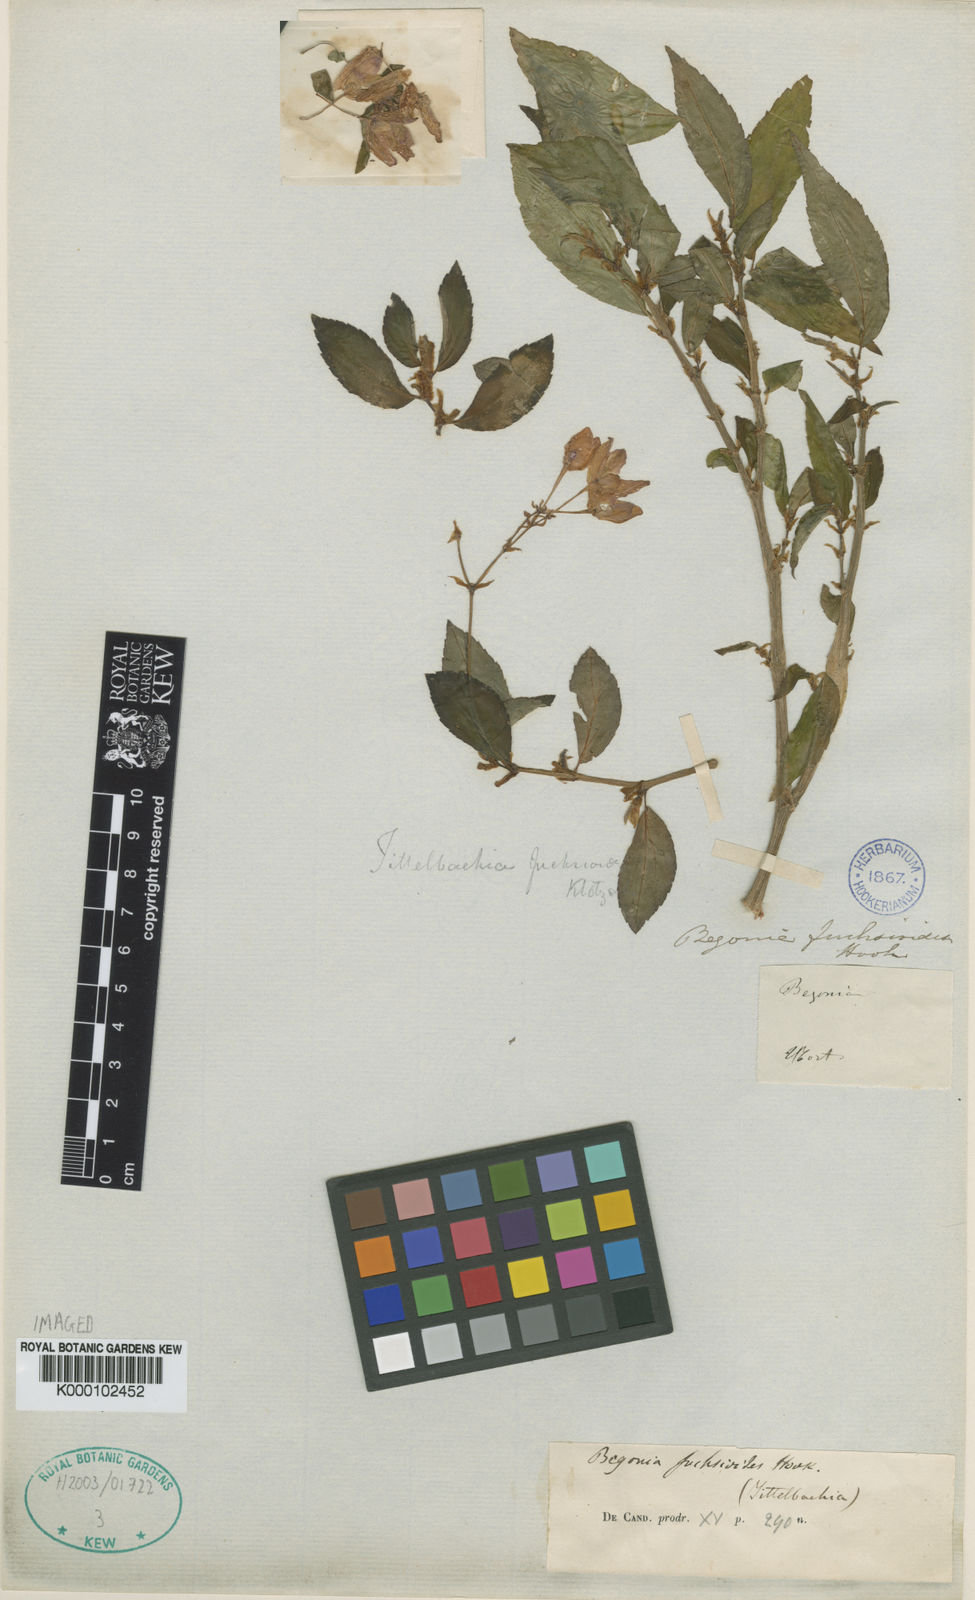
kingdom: Plantae
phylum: Tracheophyta
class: Magnoliopsida
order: Cucurbitales
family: Begoniaceae
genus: Begonia
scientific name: Begonia fuchsioides
